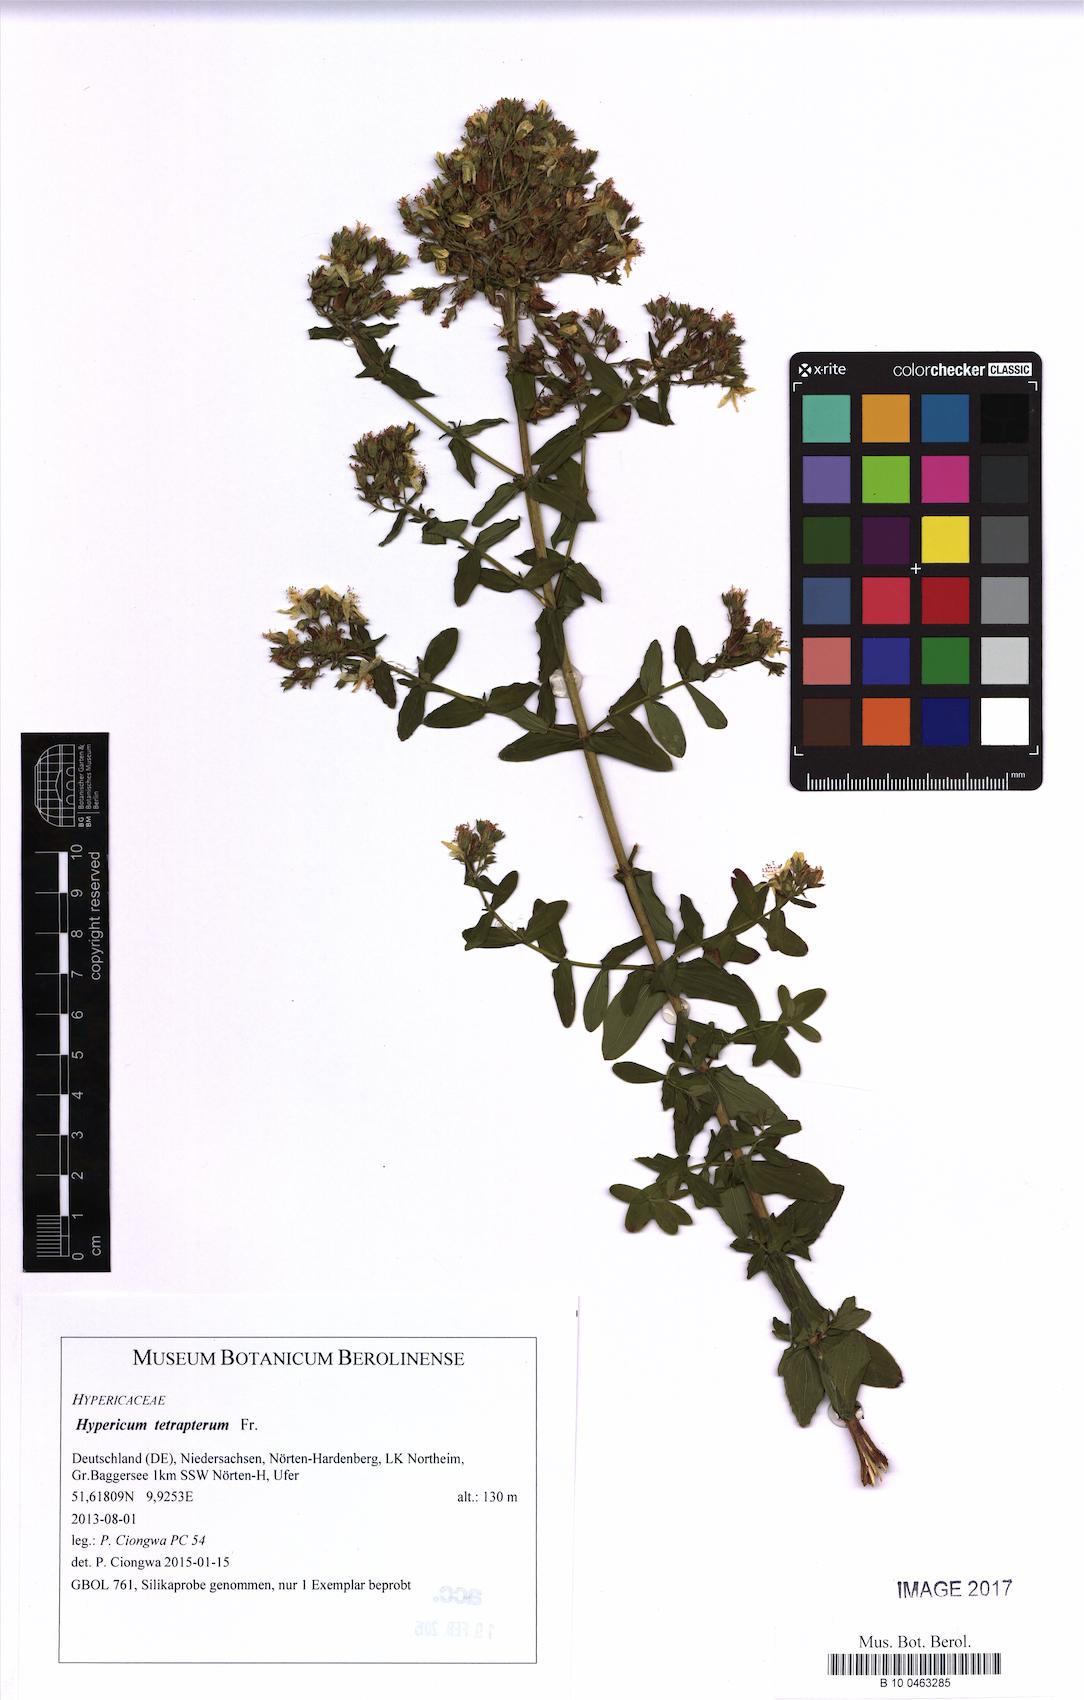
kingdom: Plantae
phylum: Tracheophyta
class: Magnoliopsida
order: Malpighiales
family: Hypericaceae
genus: Hypericum
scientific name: Hypericum tetrapterum
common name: Square-stalked st. john's-wort
